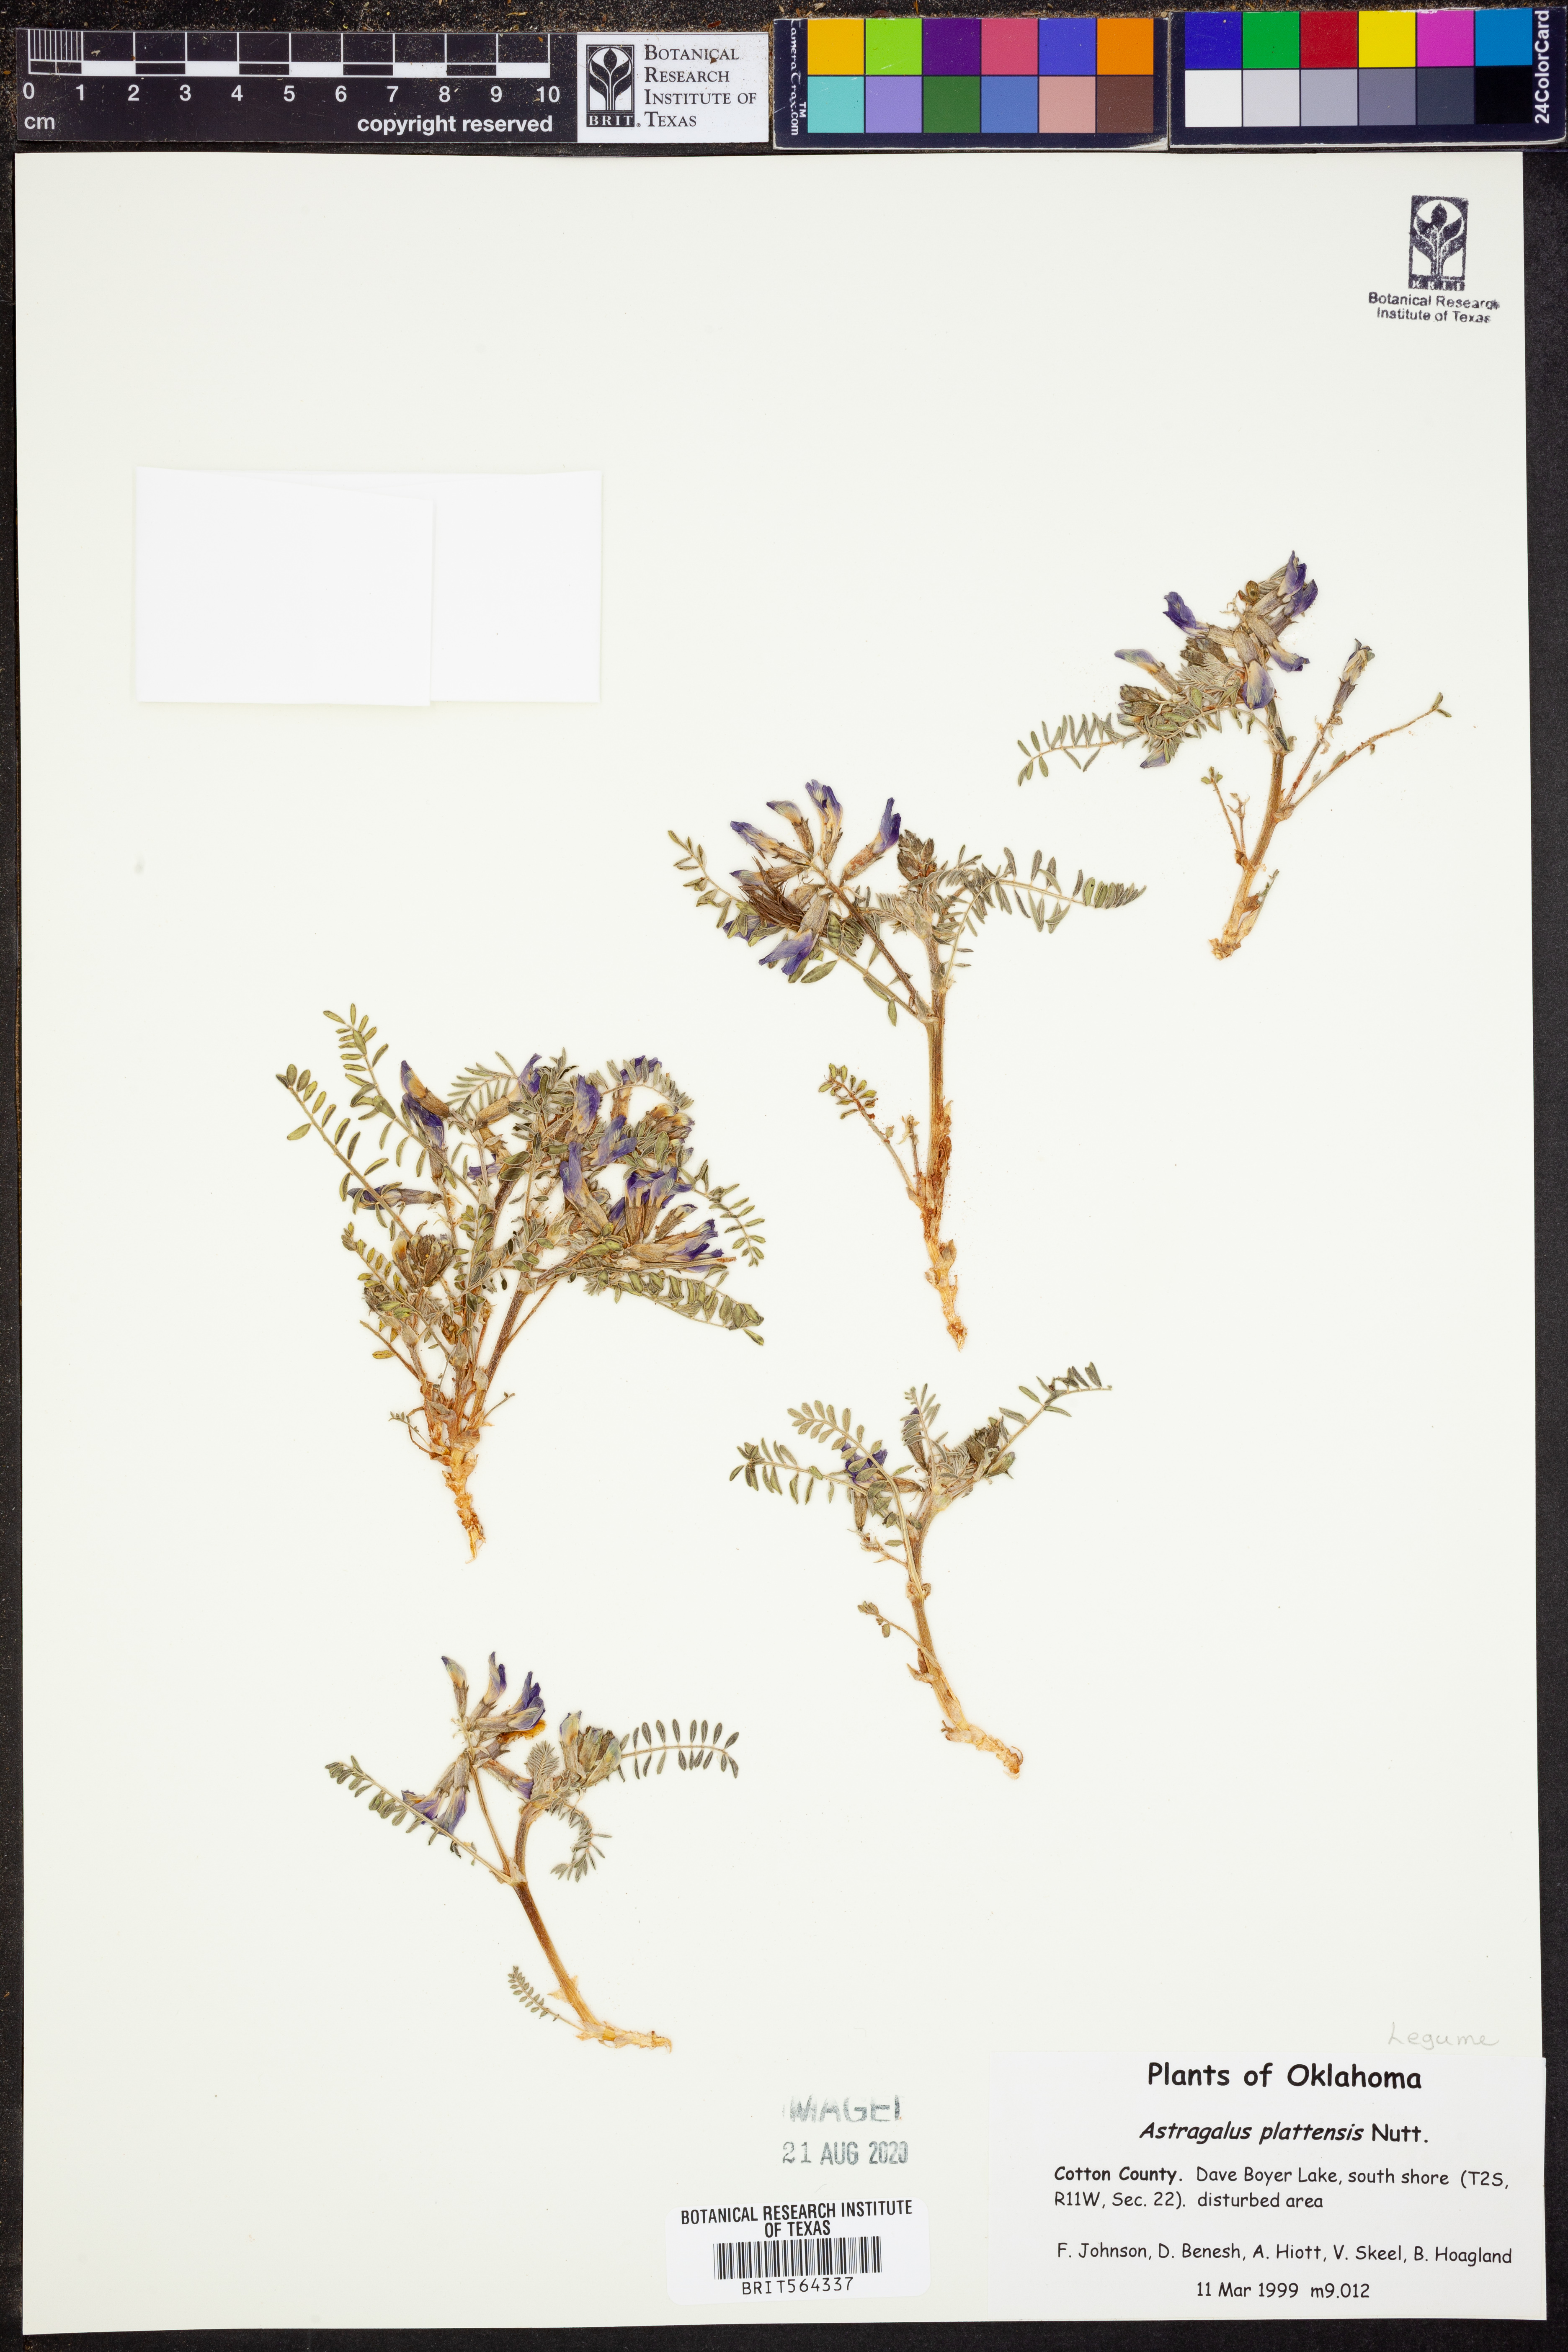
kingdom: Plantae
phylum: Tracheophyta
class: Magnoliopsida
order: Fabales
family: Fabaceae
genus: Astragalus
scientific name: Astragalus plattensis
